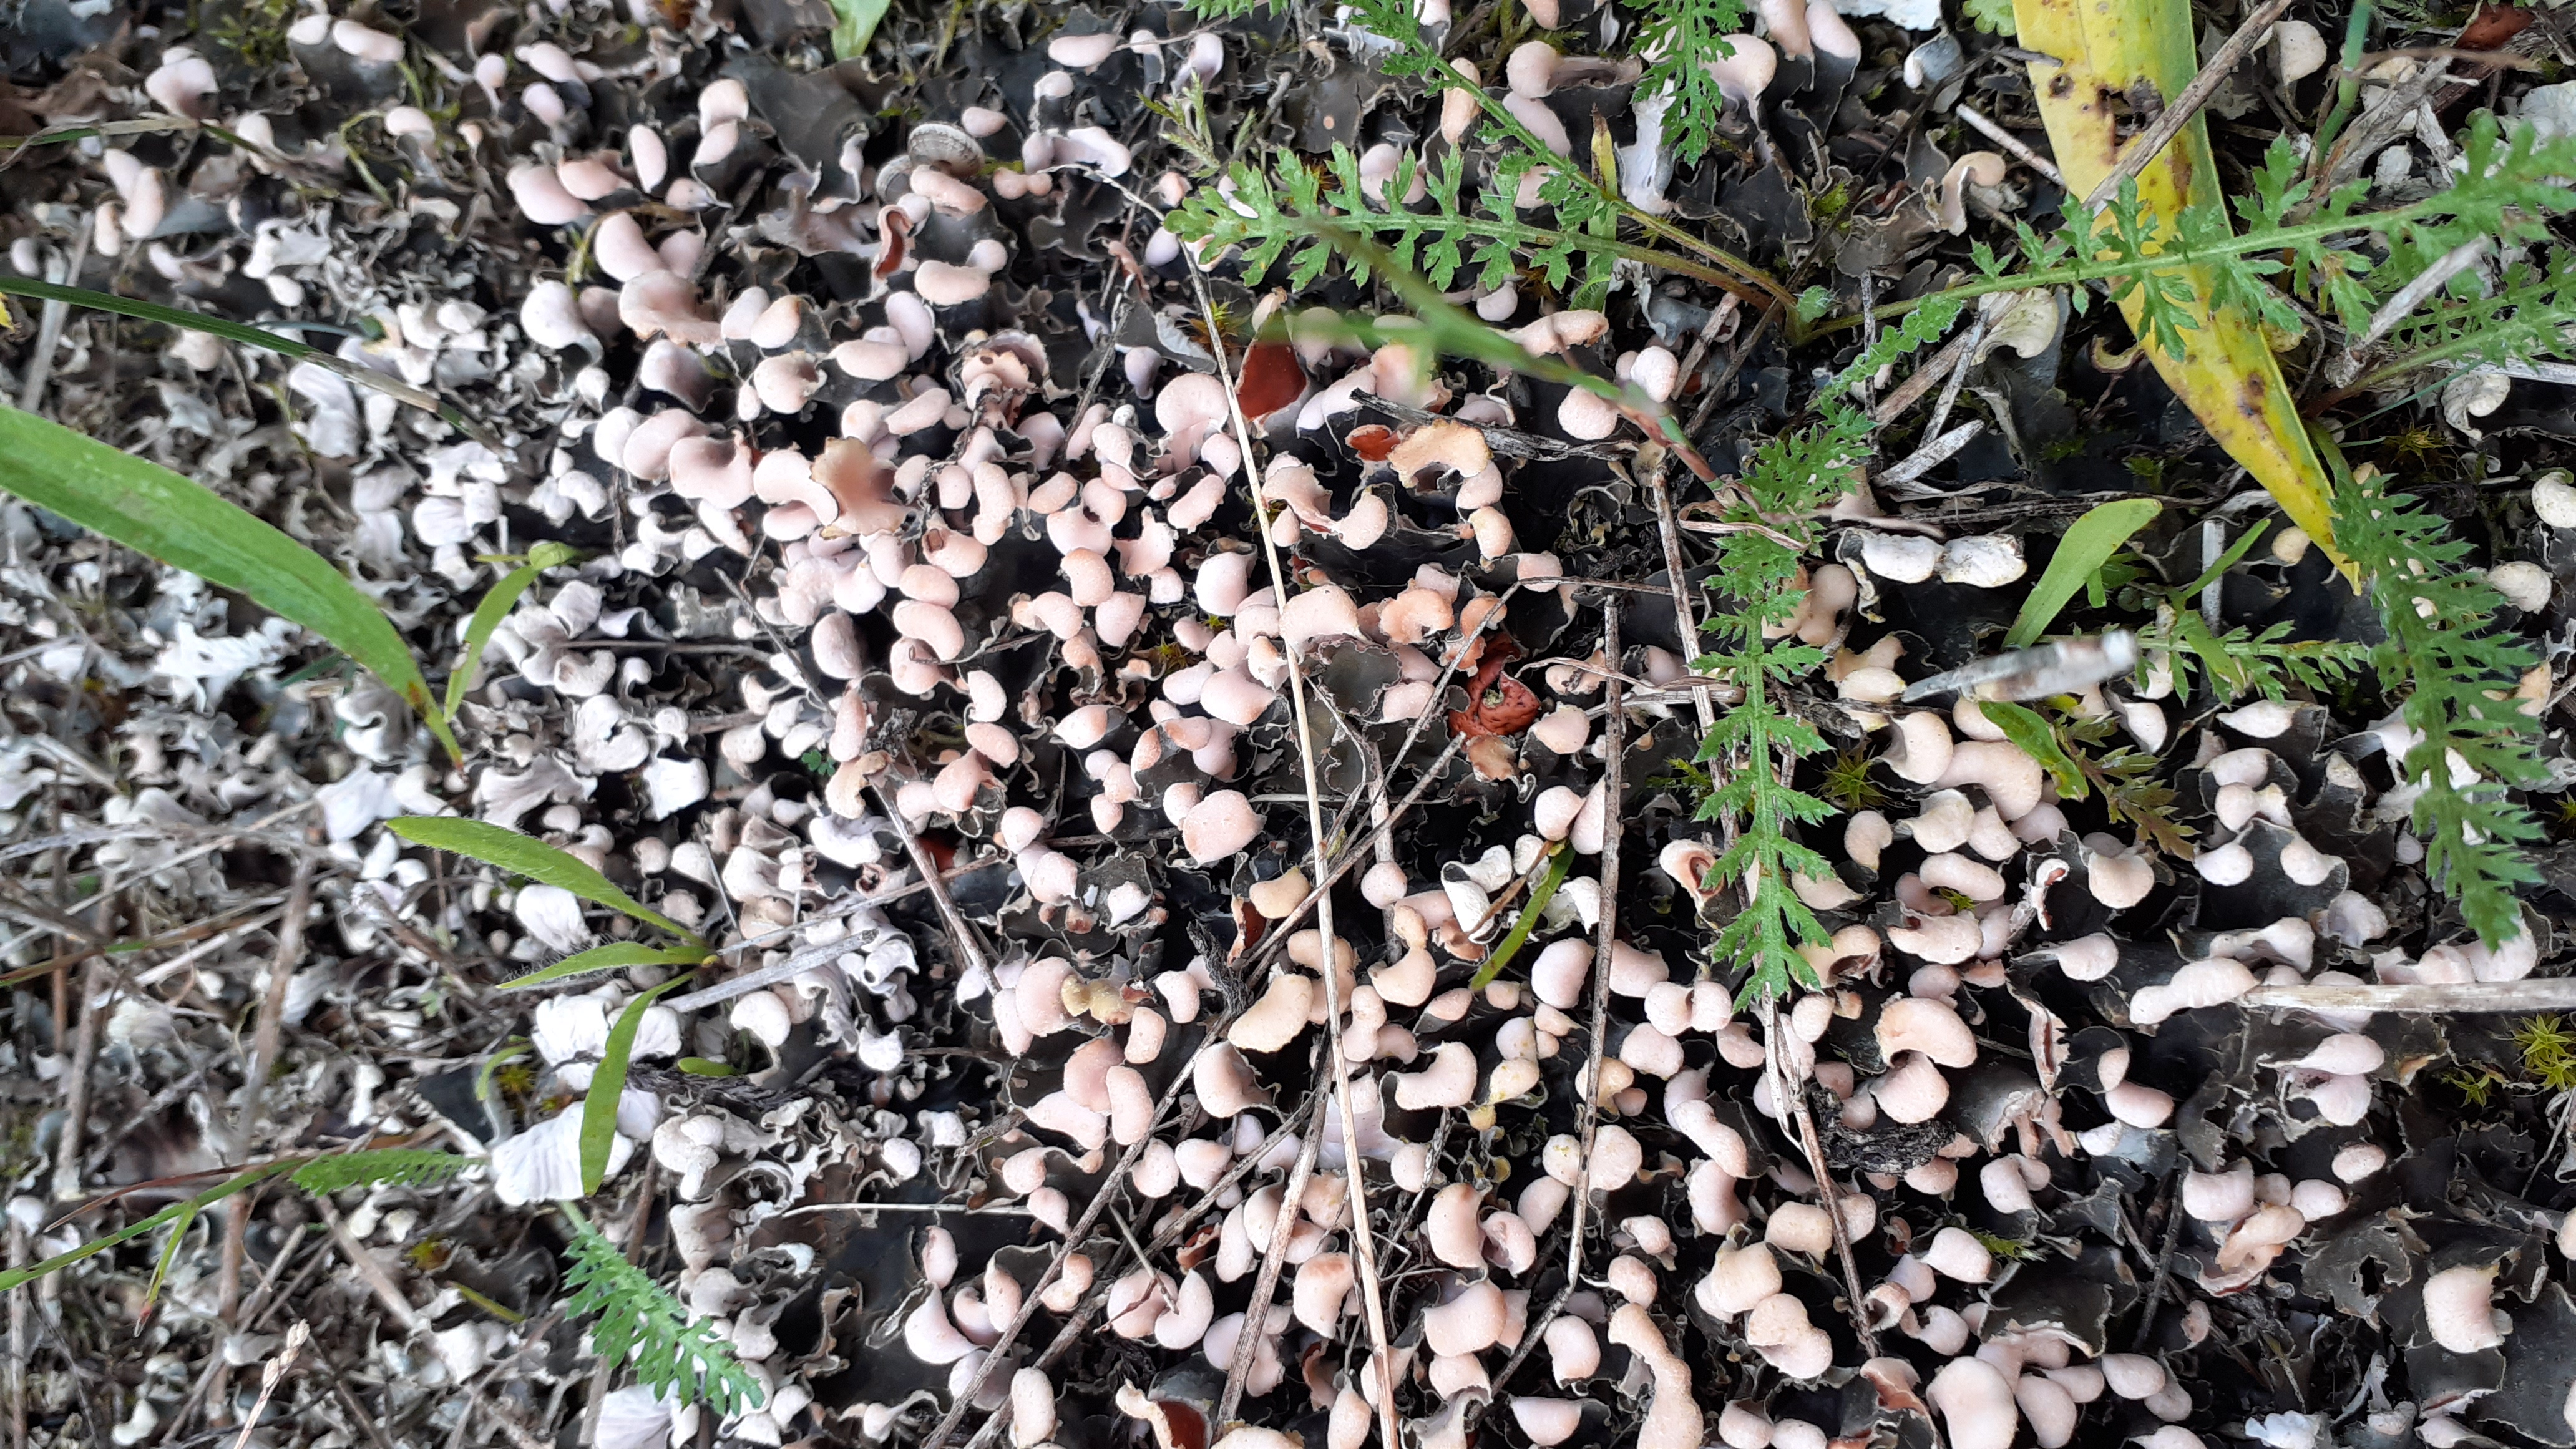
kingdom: Fungi
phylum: Ascomycota
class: Lecanoromycetes
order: Peltigerales
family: Peltigeraceae
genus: Peltigera
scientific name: Peltigera didactyla
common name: Liden skjoldlav
